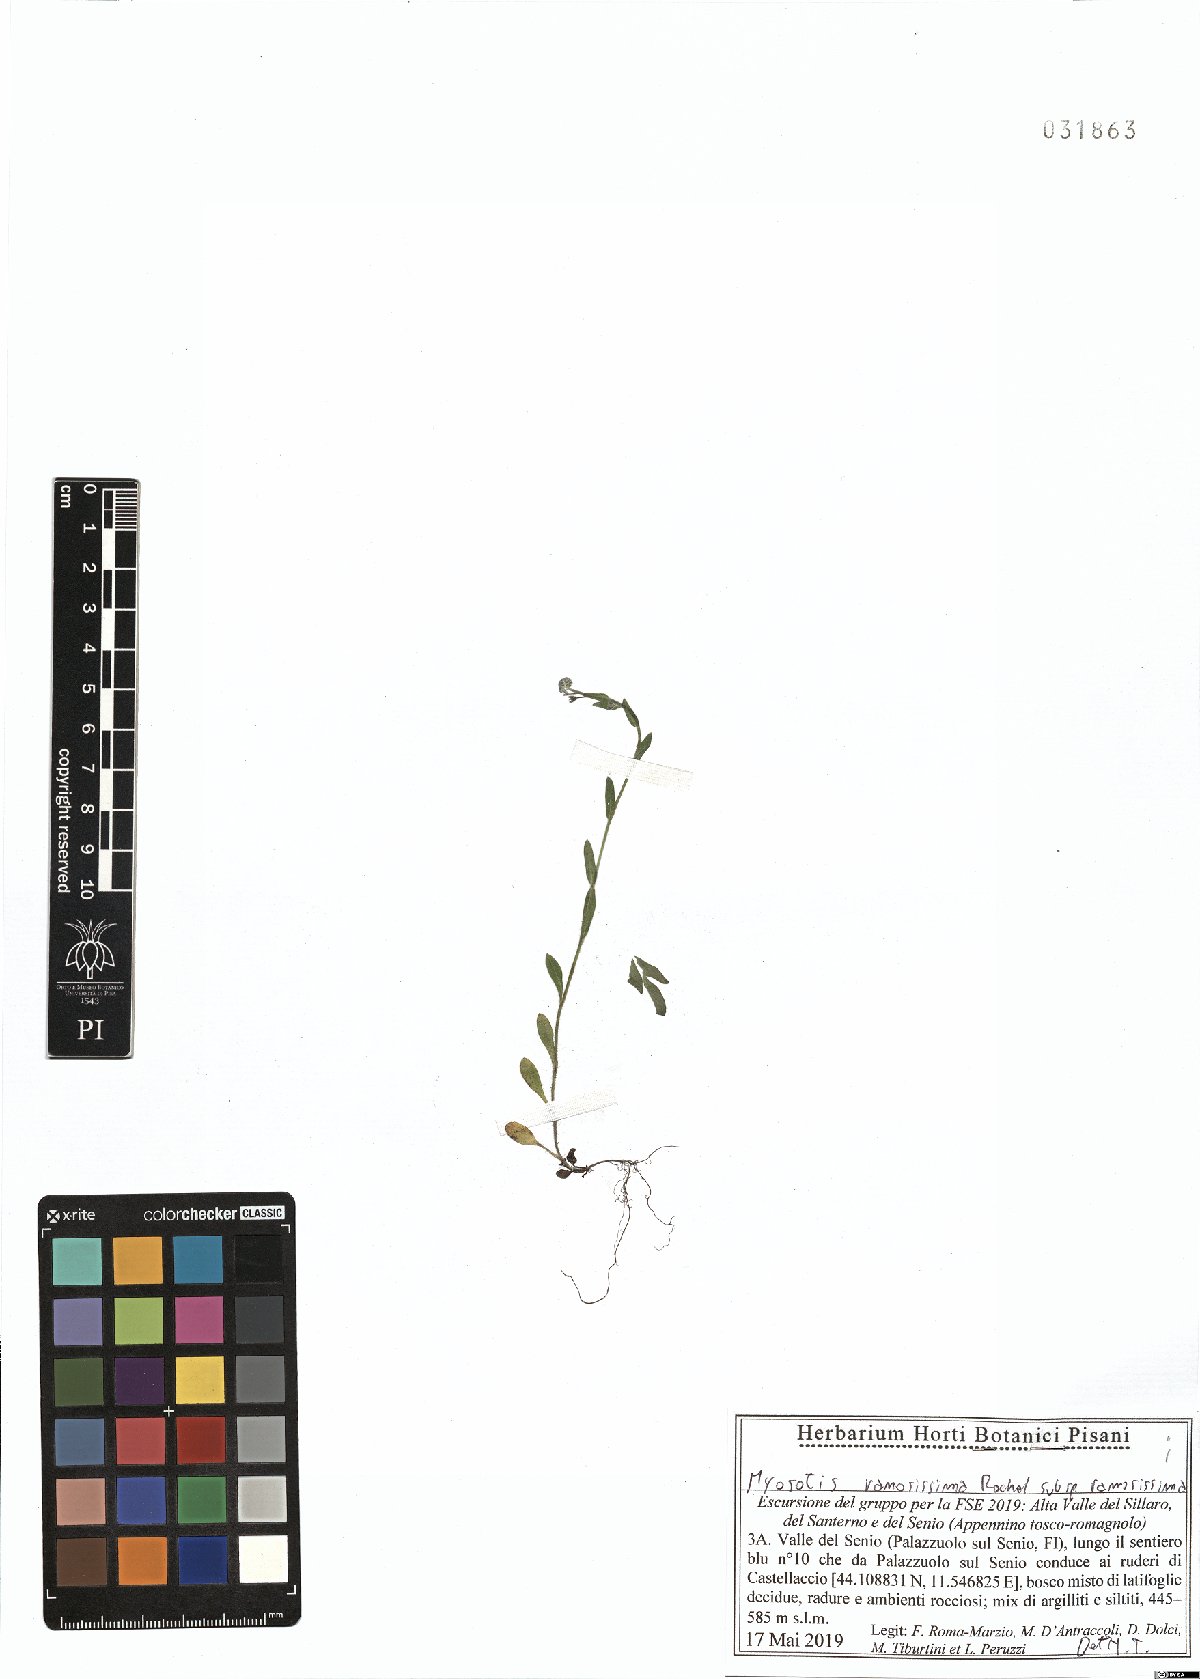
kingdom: Plantae
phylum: Tracheophyta
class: Magnoliopsida
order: Boraginales
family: Boraginaceae
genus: Myosotis
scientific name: Myosotis ramosissima
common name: Early forget-me-not
